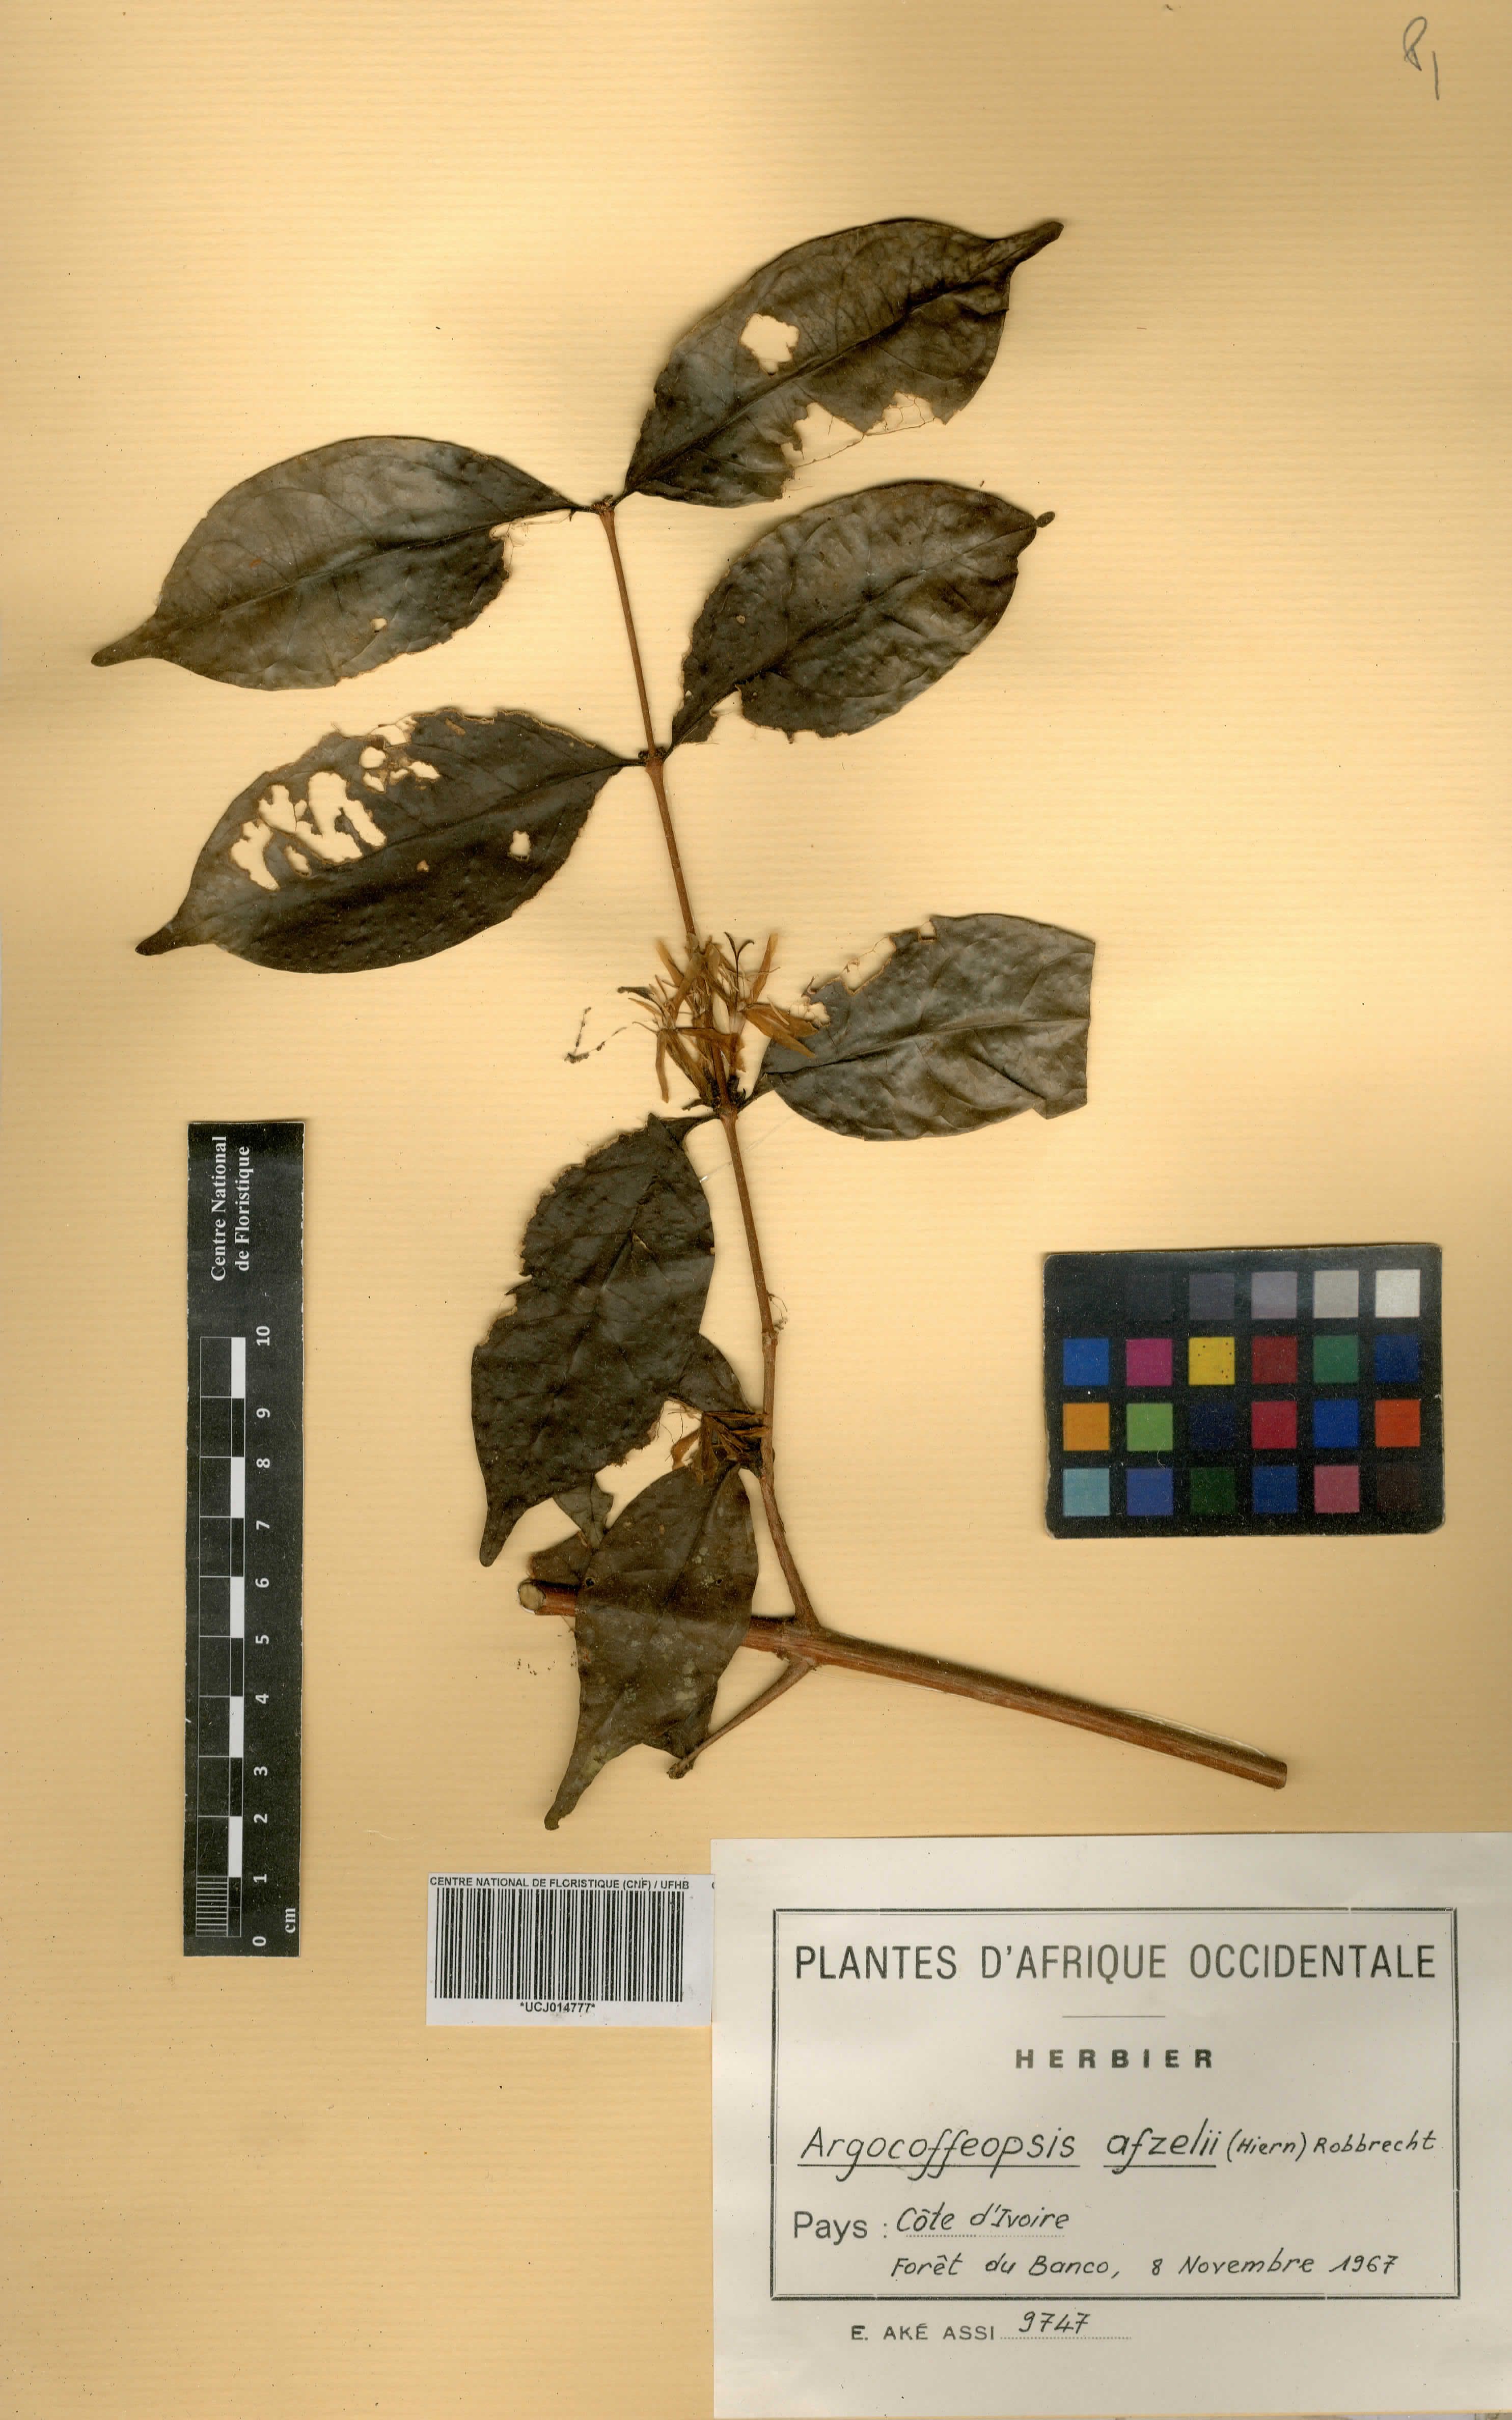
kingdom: Plantae
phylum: Tracheophyta
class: Magnoliopsida
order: Gentianales
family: Rubiaceae
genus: Argocoffeopsis
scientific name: Argocoffeopsis afzelii
